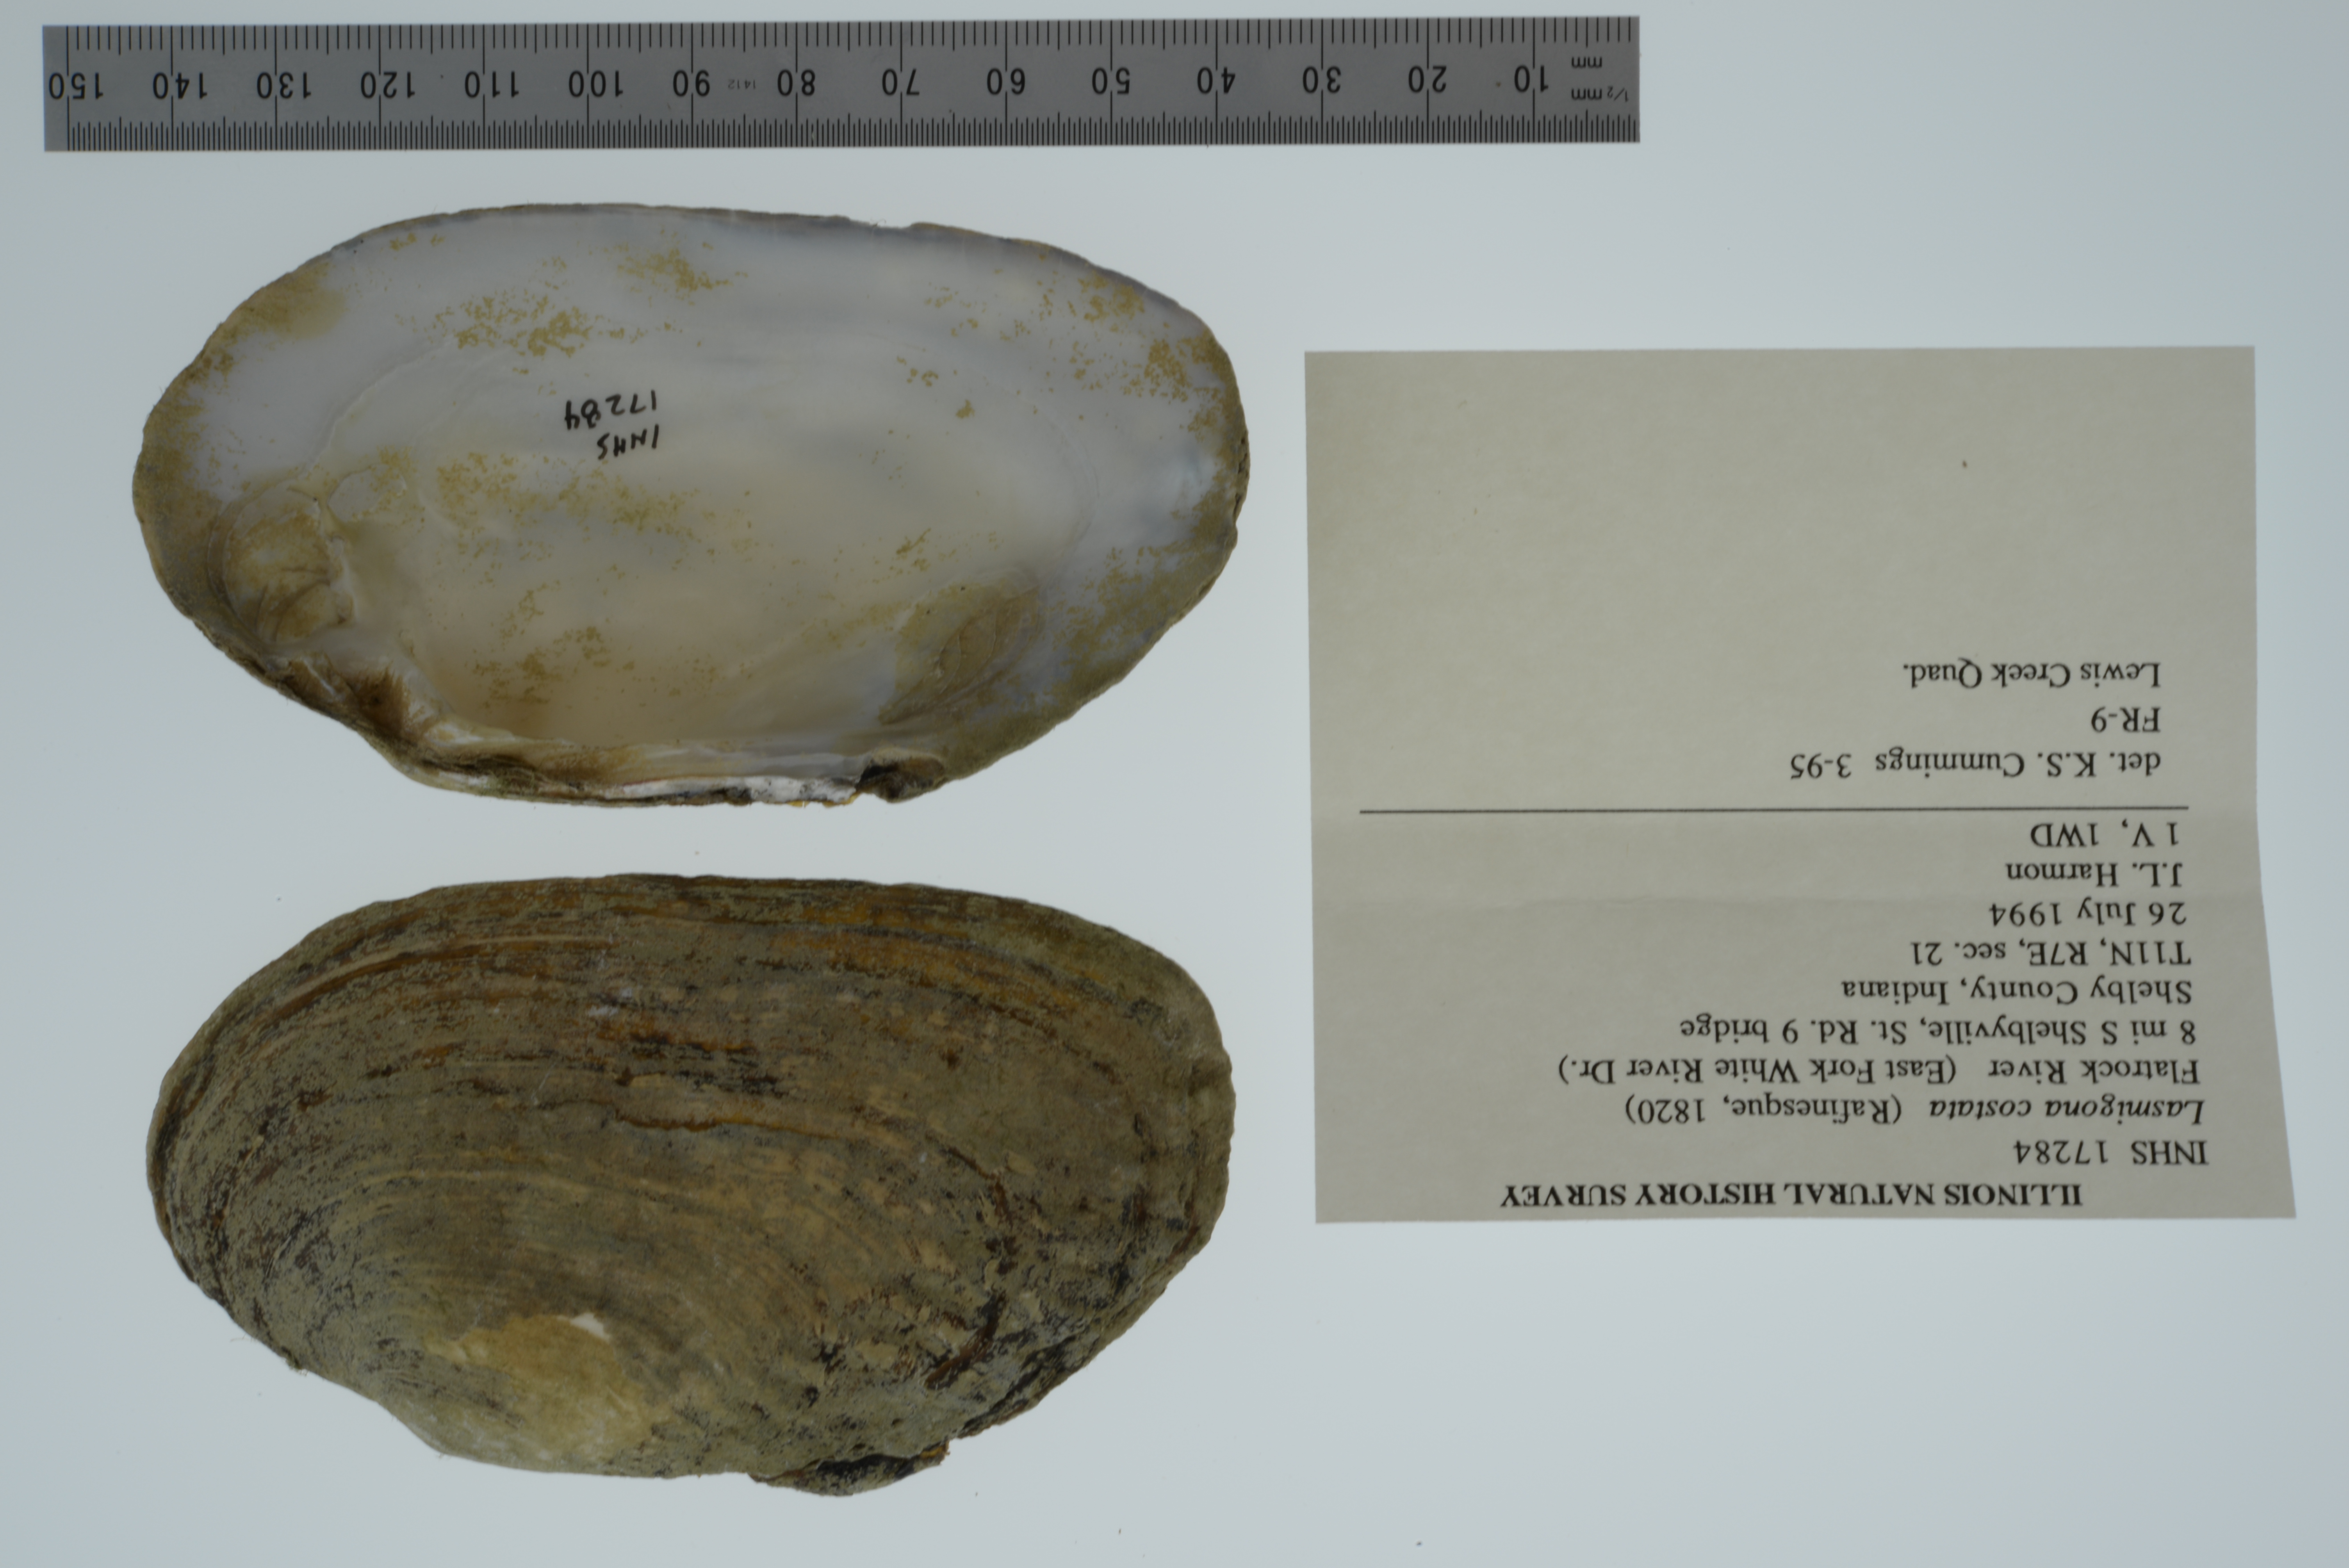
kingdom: Animalia
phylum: Mollusca
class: Bivalvia
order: Unionida
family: Unionidae
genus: Lasmigona
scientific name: Lasmigona costata
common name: Flutedshell
